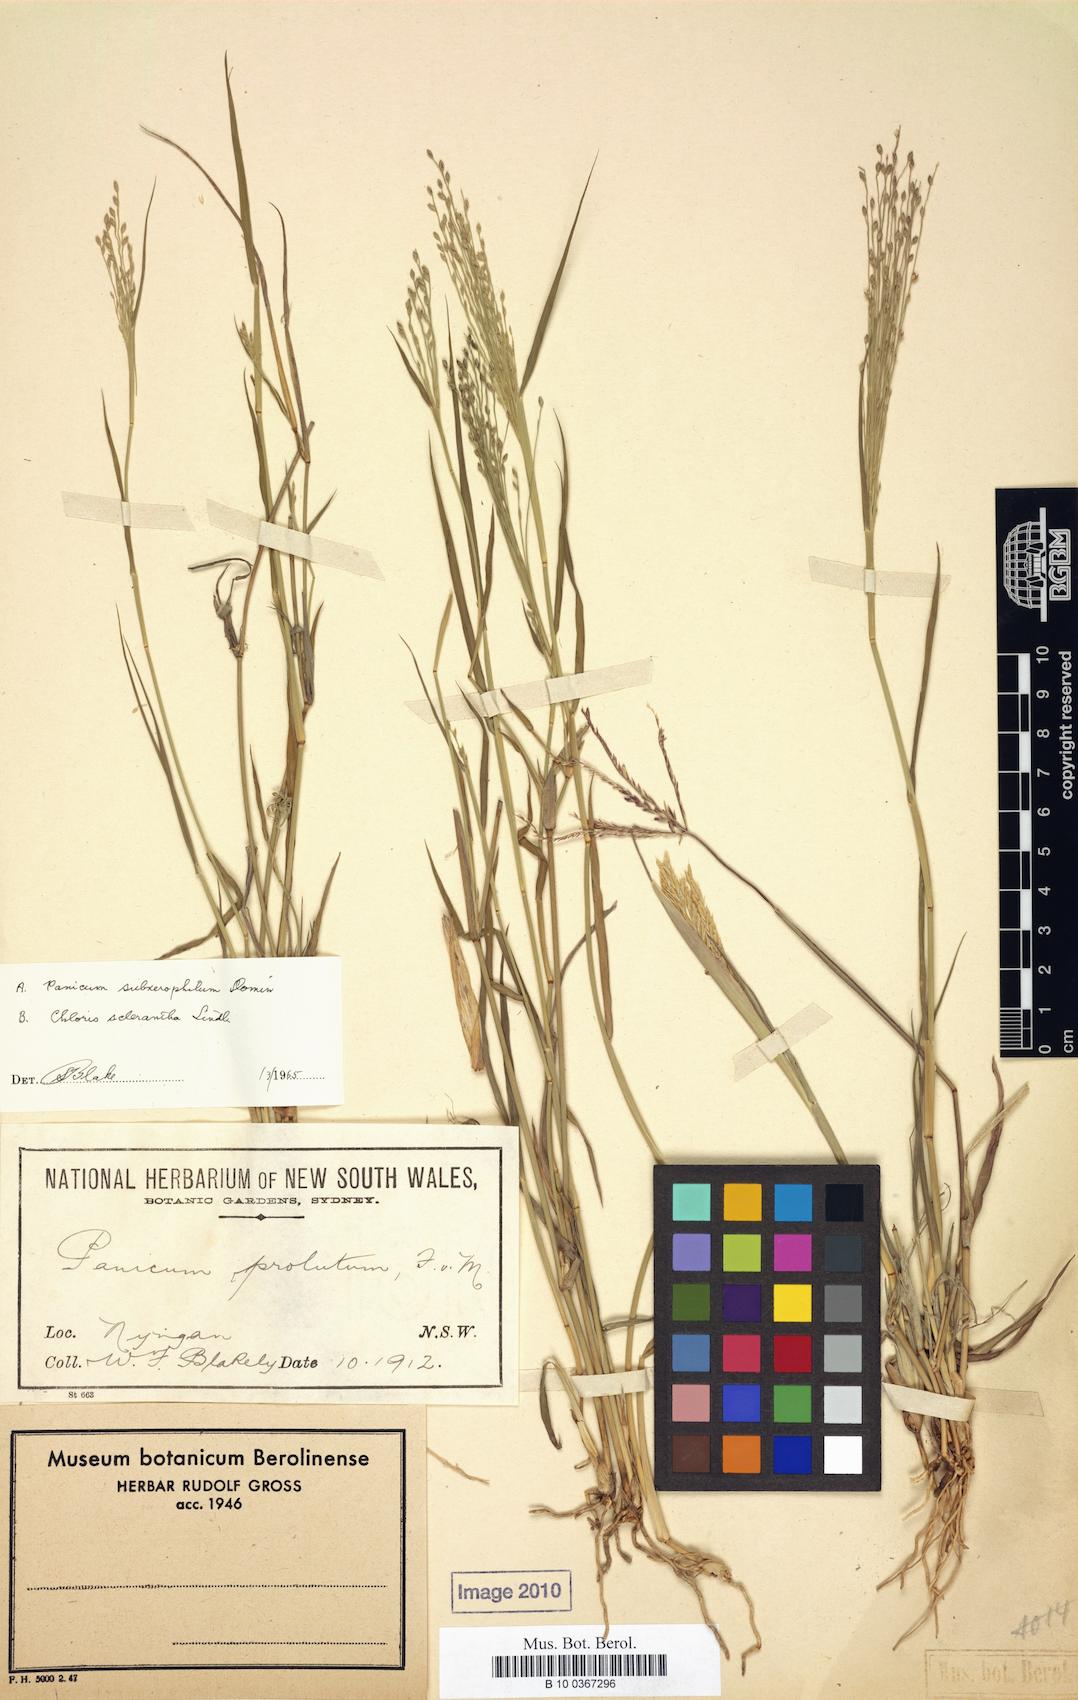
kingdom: Plantae
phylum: Tracheophyta
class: Liliopsida
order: Poales
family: Poaceae
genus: Walwhalleya
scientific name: Walwhalleya proluta
